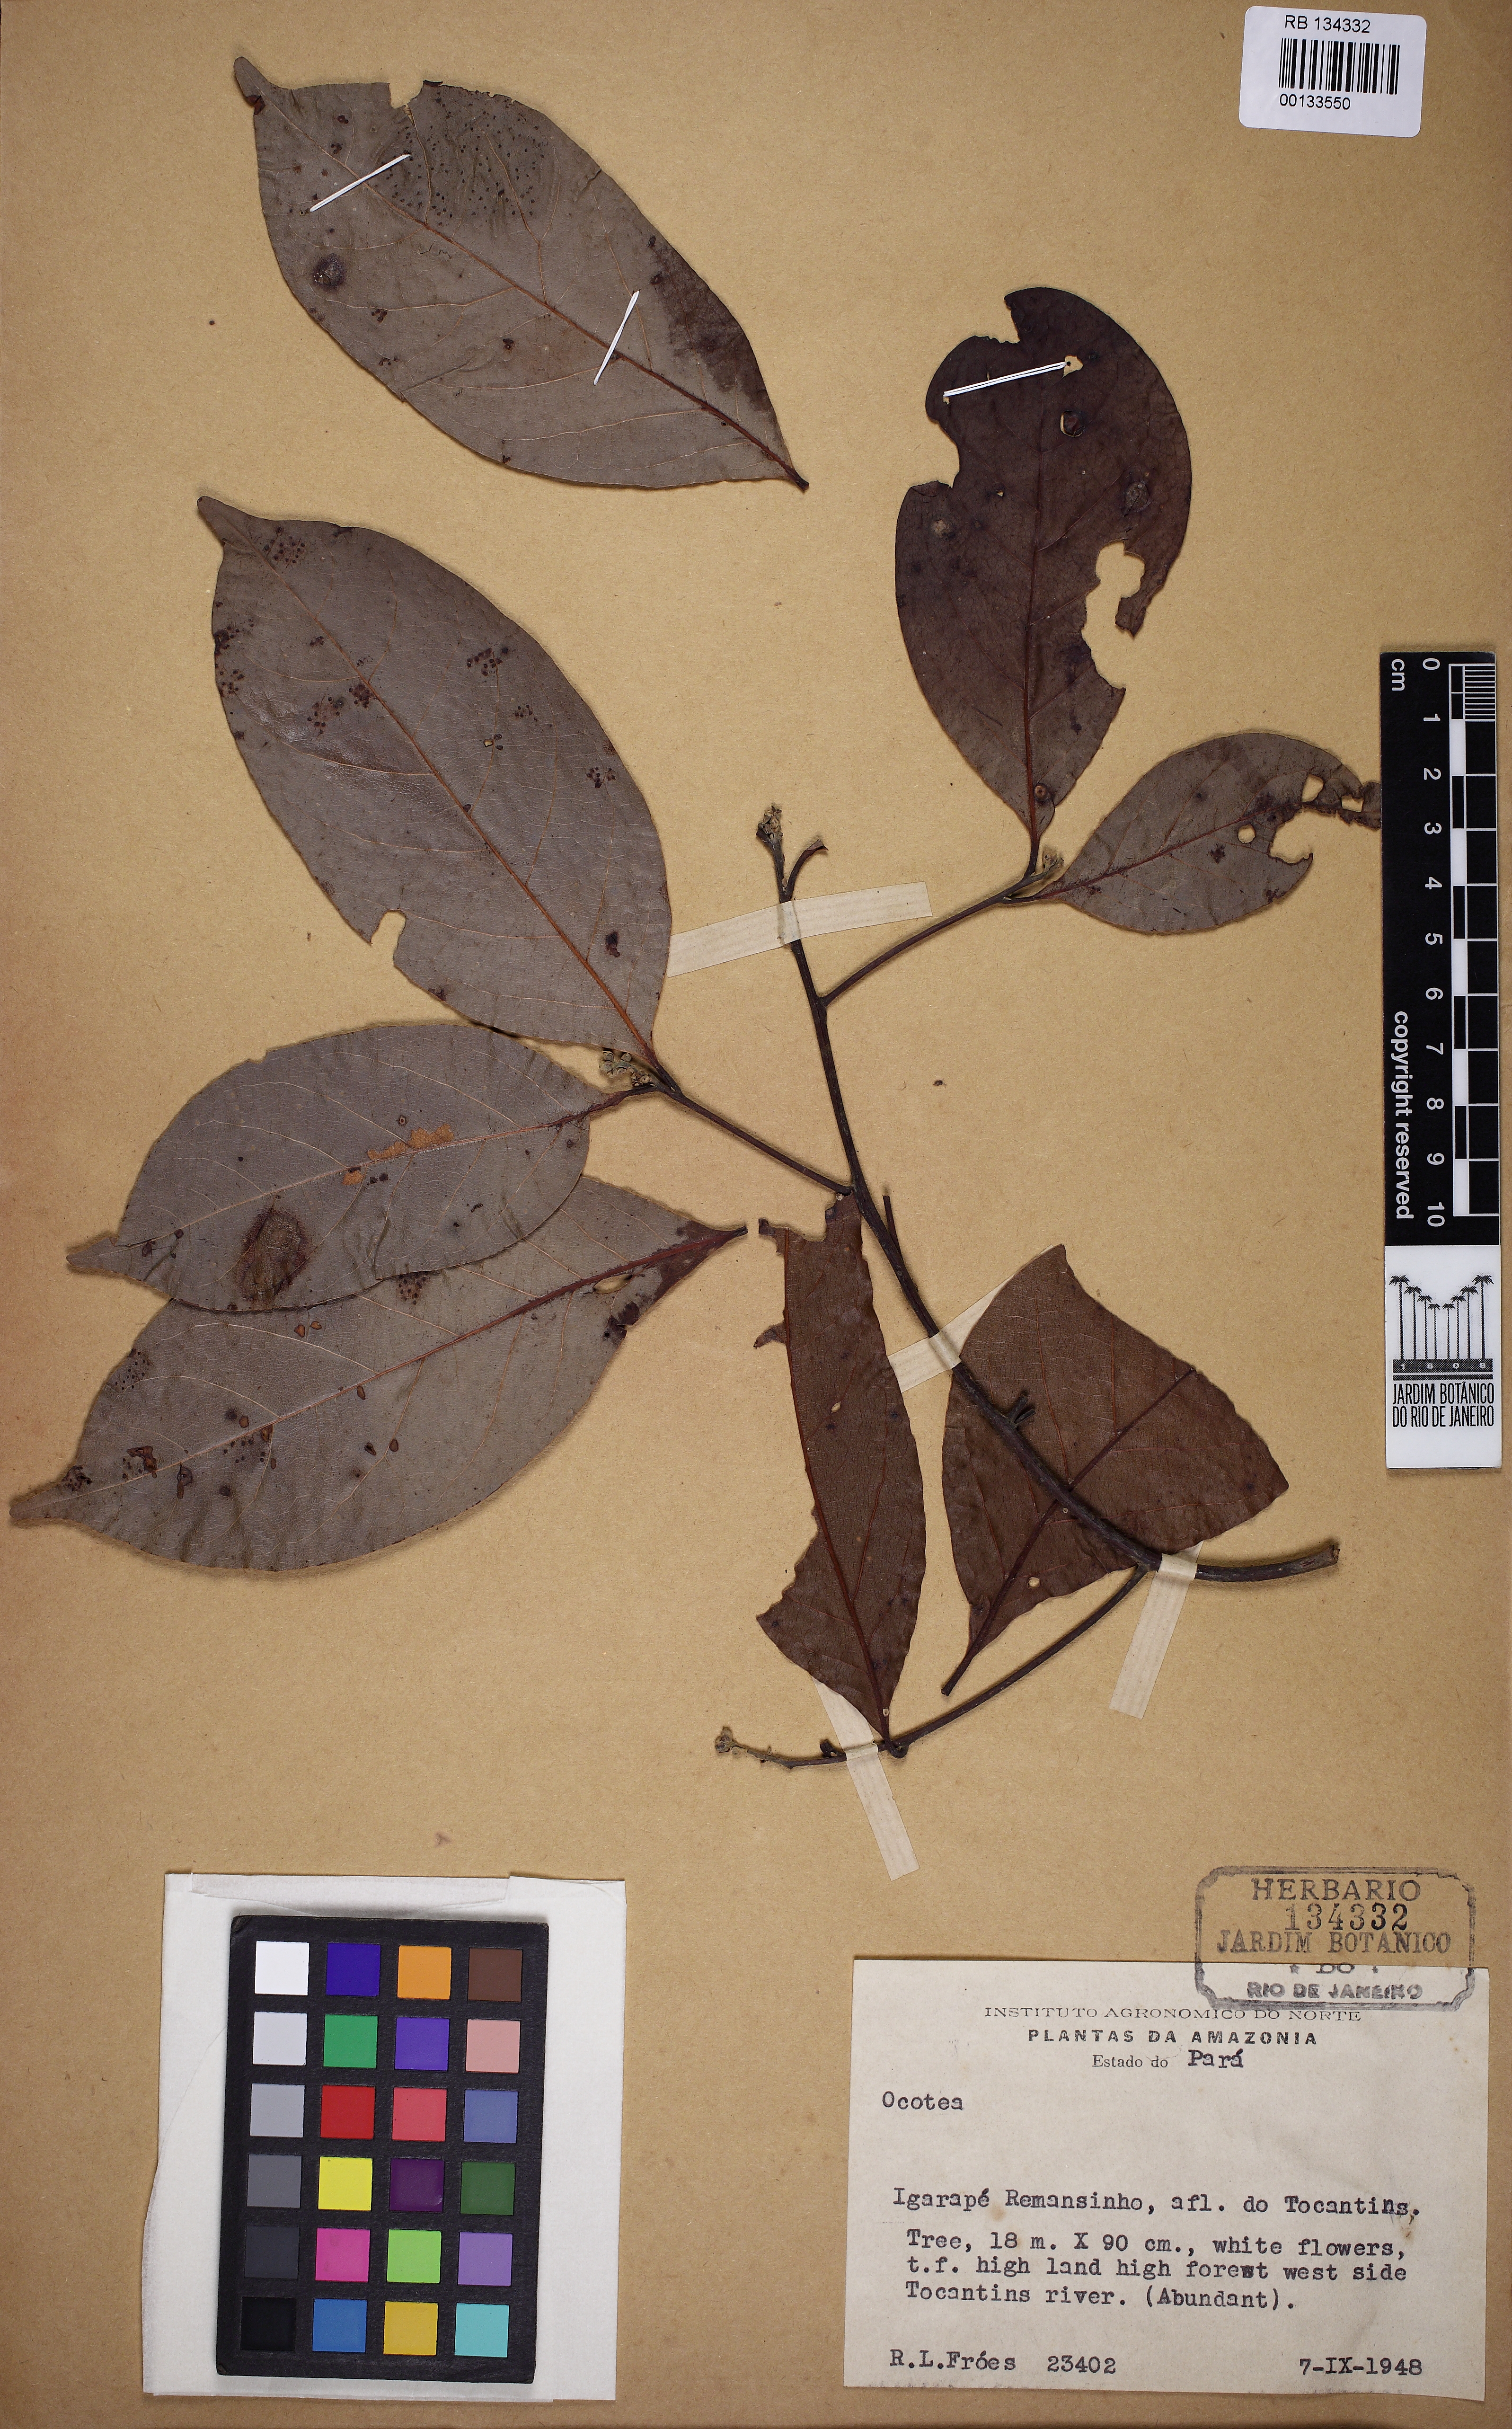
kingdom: Plantae
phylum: Tracheophyta
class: Magnoliopsida
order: Laurales
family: Lauraceae
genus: Ocotea
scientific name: Ocotea
